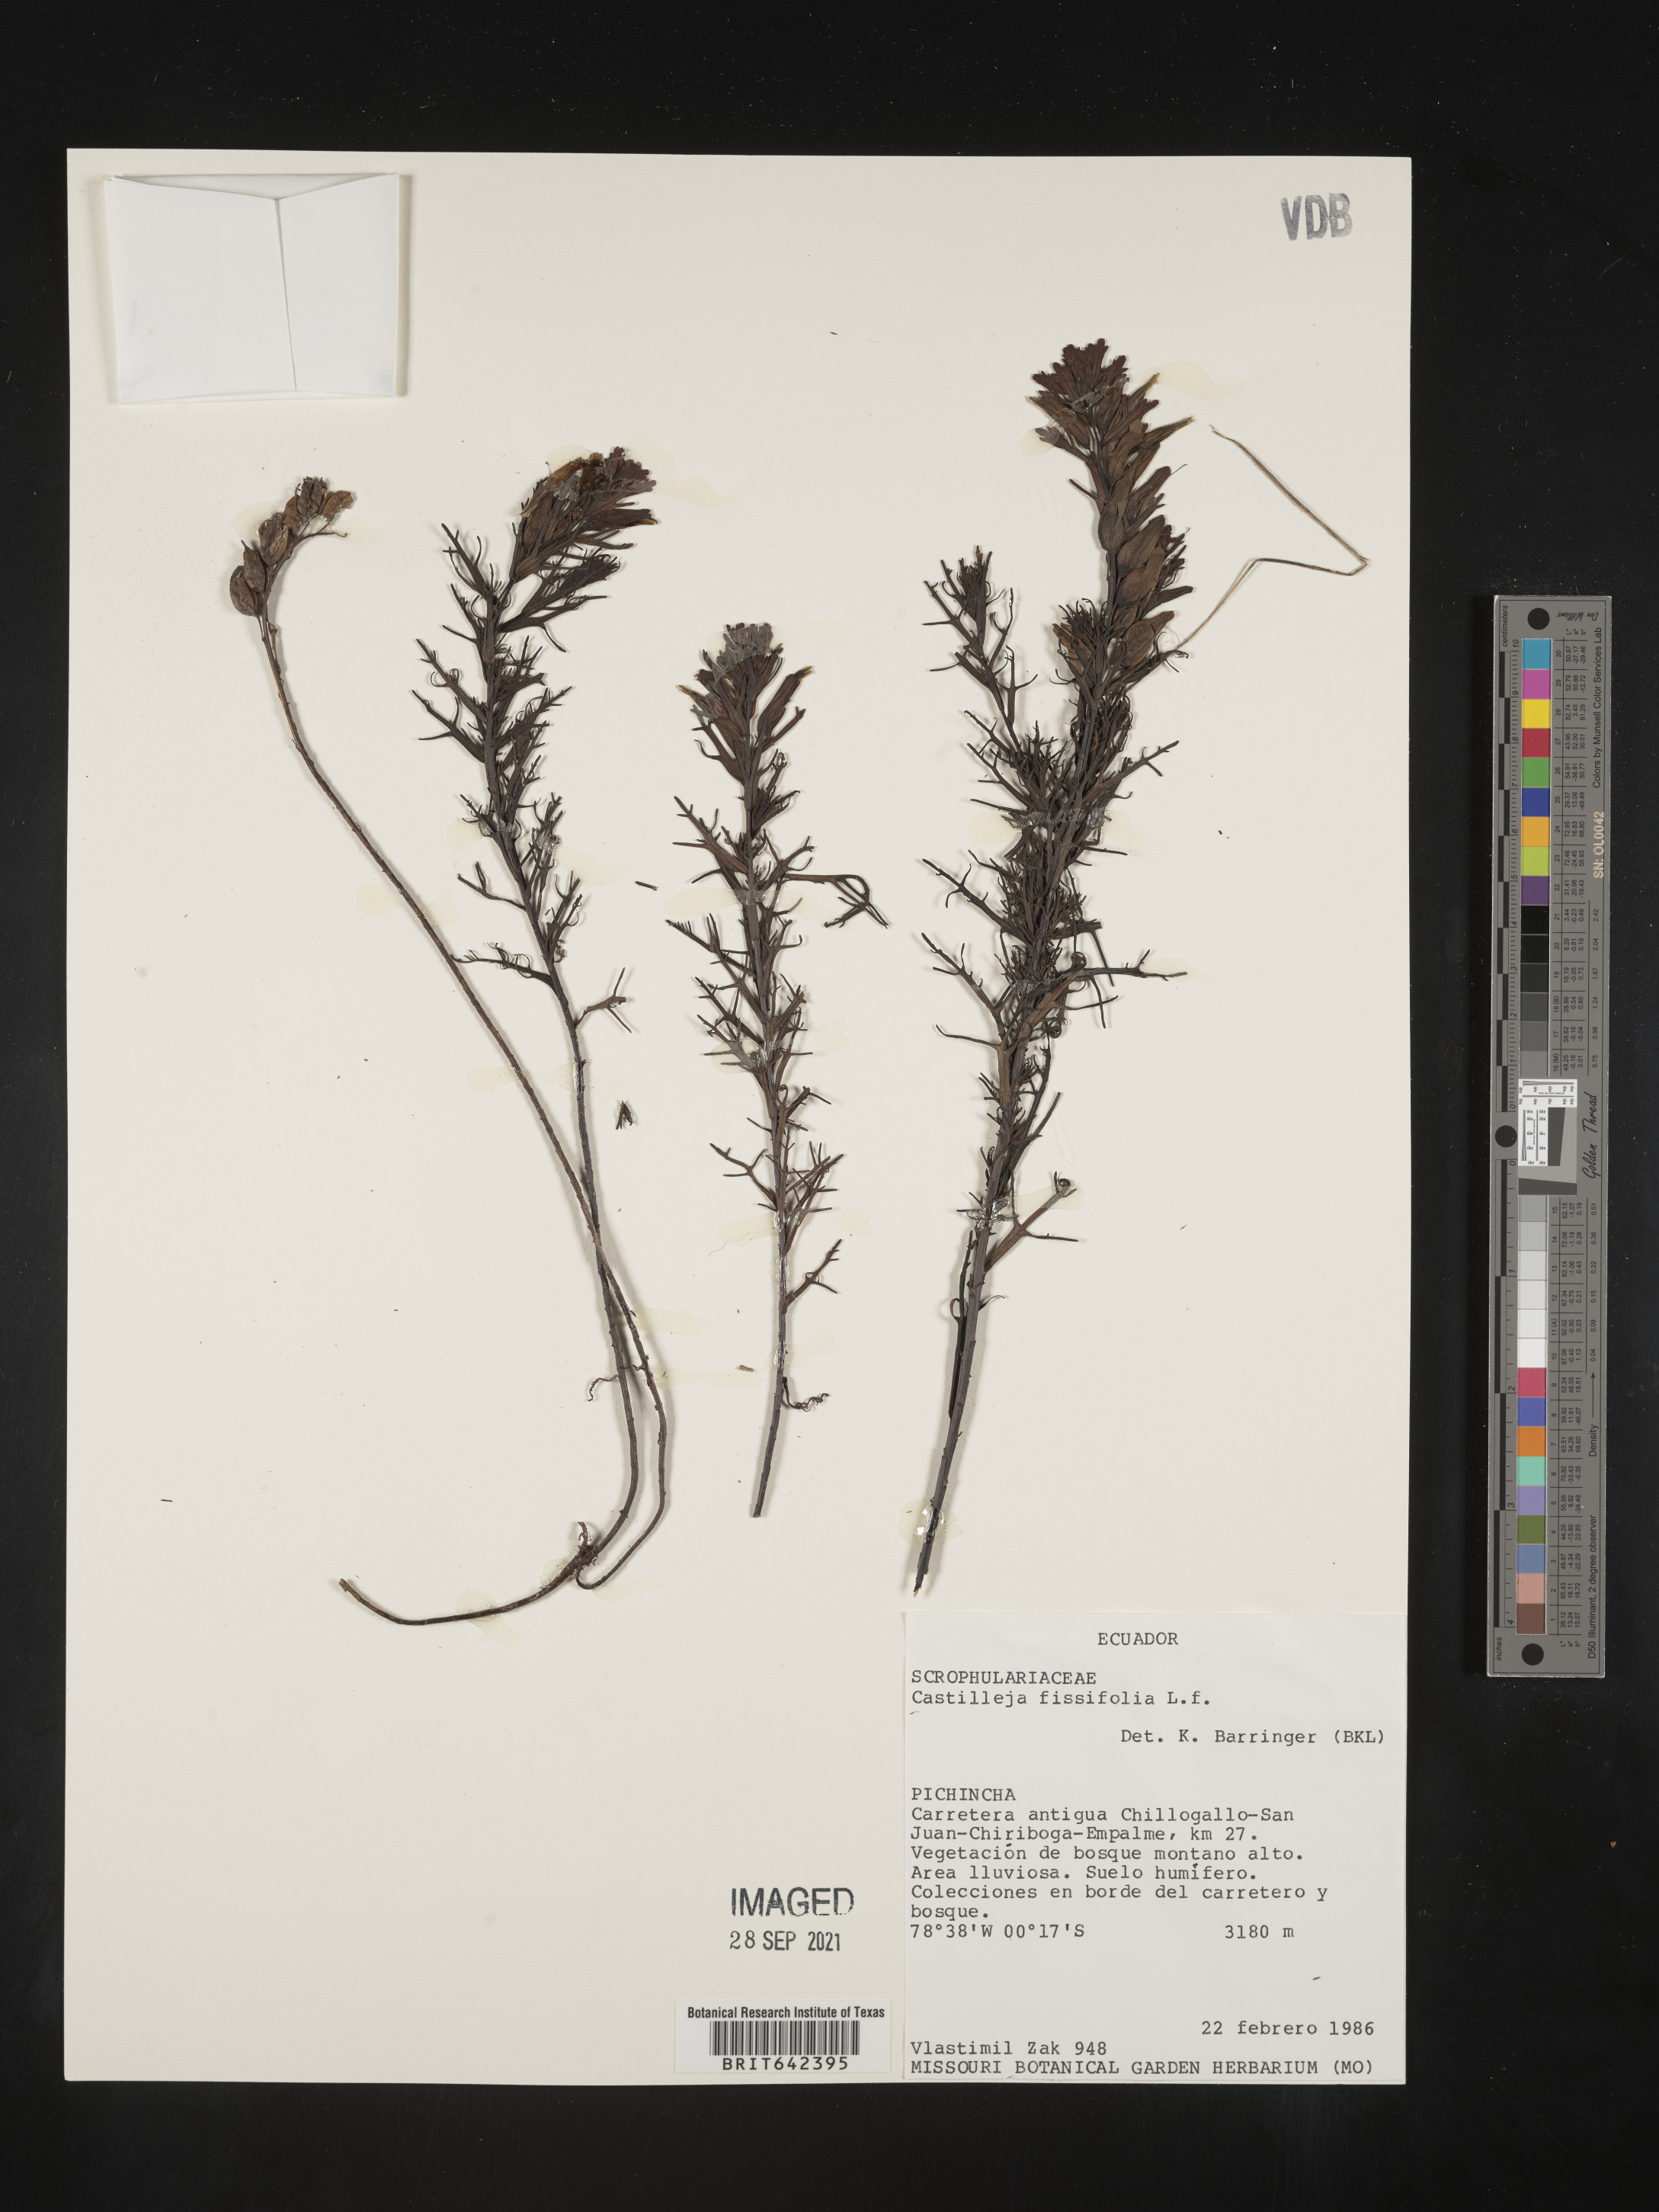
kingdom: Plantae
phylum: Tracheophyta
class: Magnoliopsida
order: Lamiales
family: Orobanchaceae
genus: Castilleja
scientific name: Castilleja
